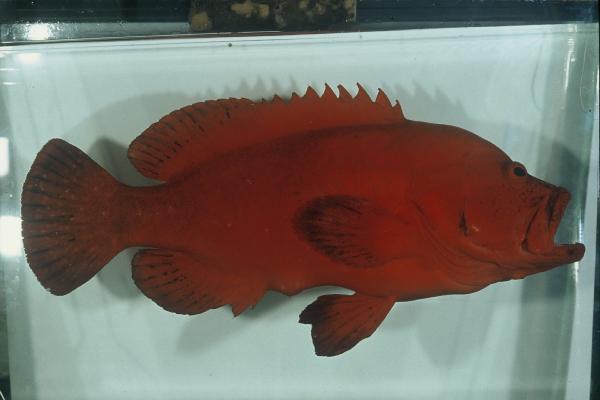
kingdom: Animalia
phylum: Chordata
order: Perciformes
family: Serranidae
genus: Cephalopholis
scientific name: Cephalopholis sonnerati
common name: Tomato hind
